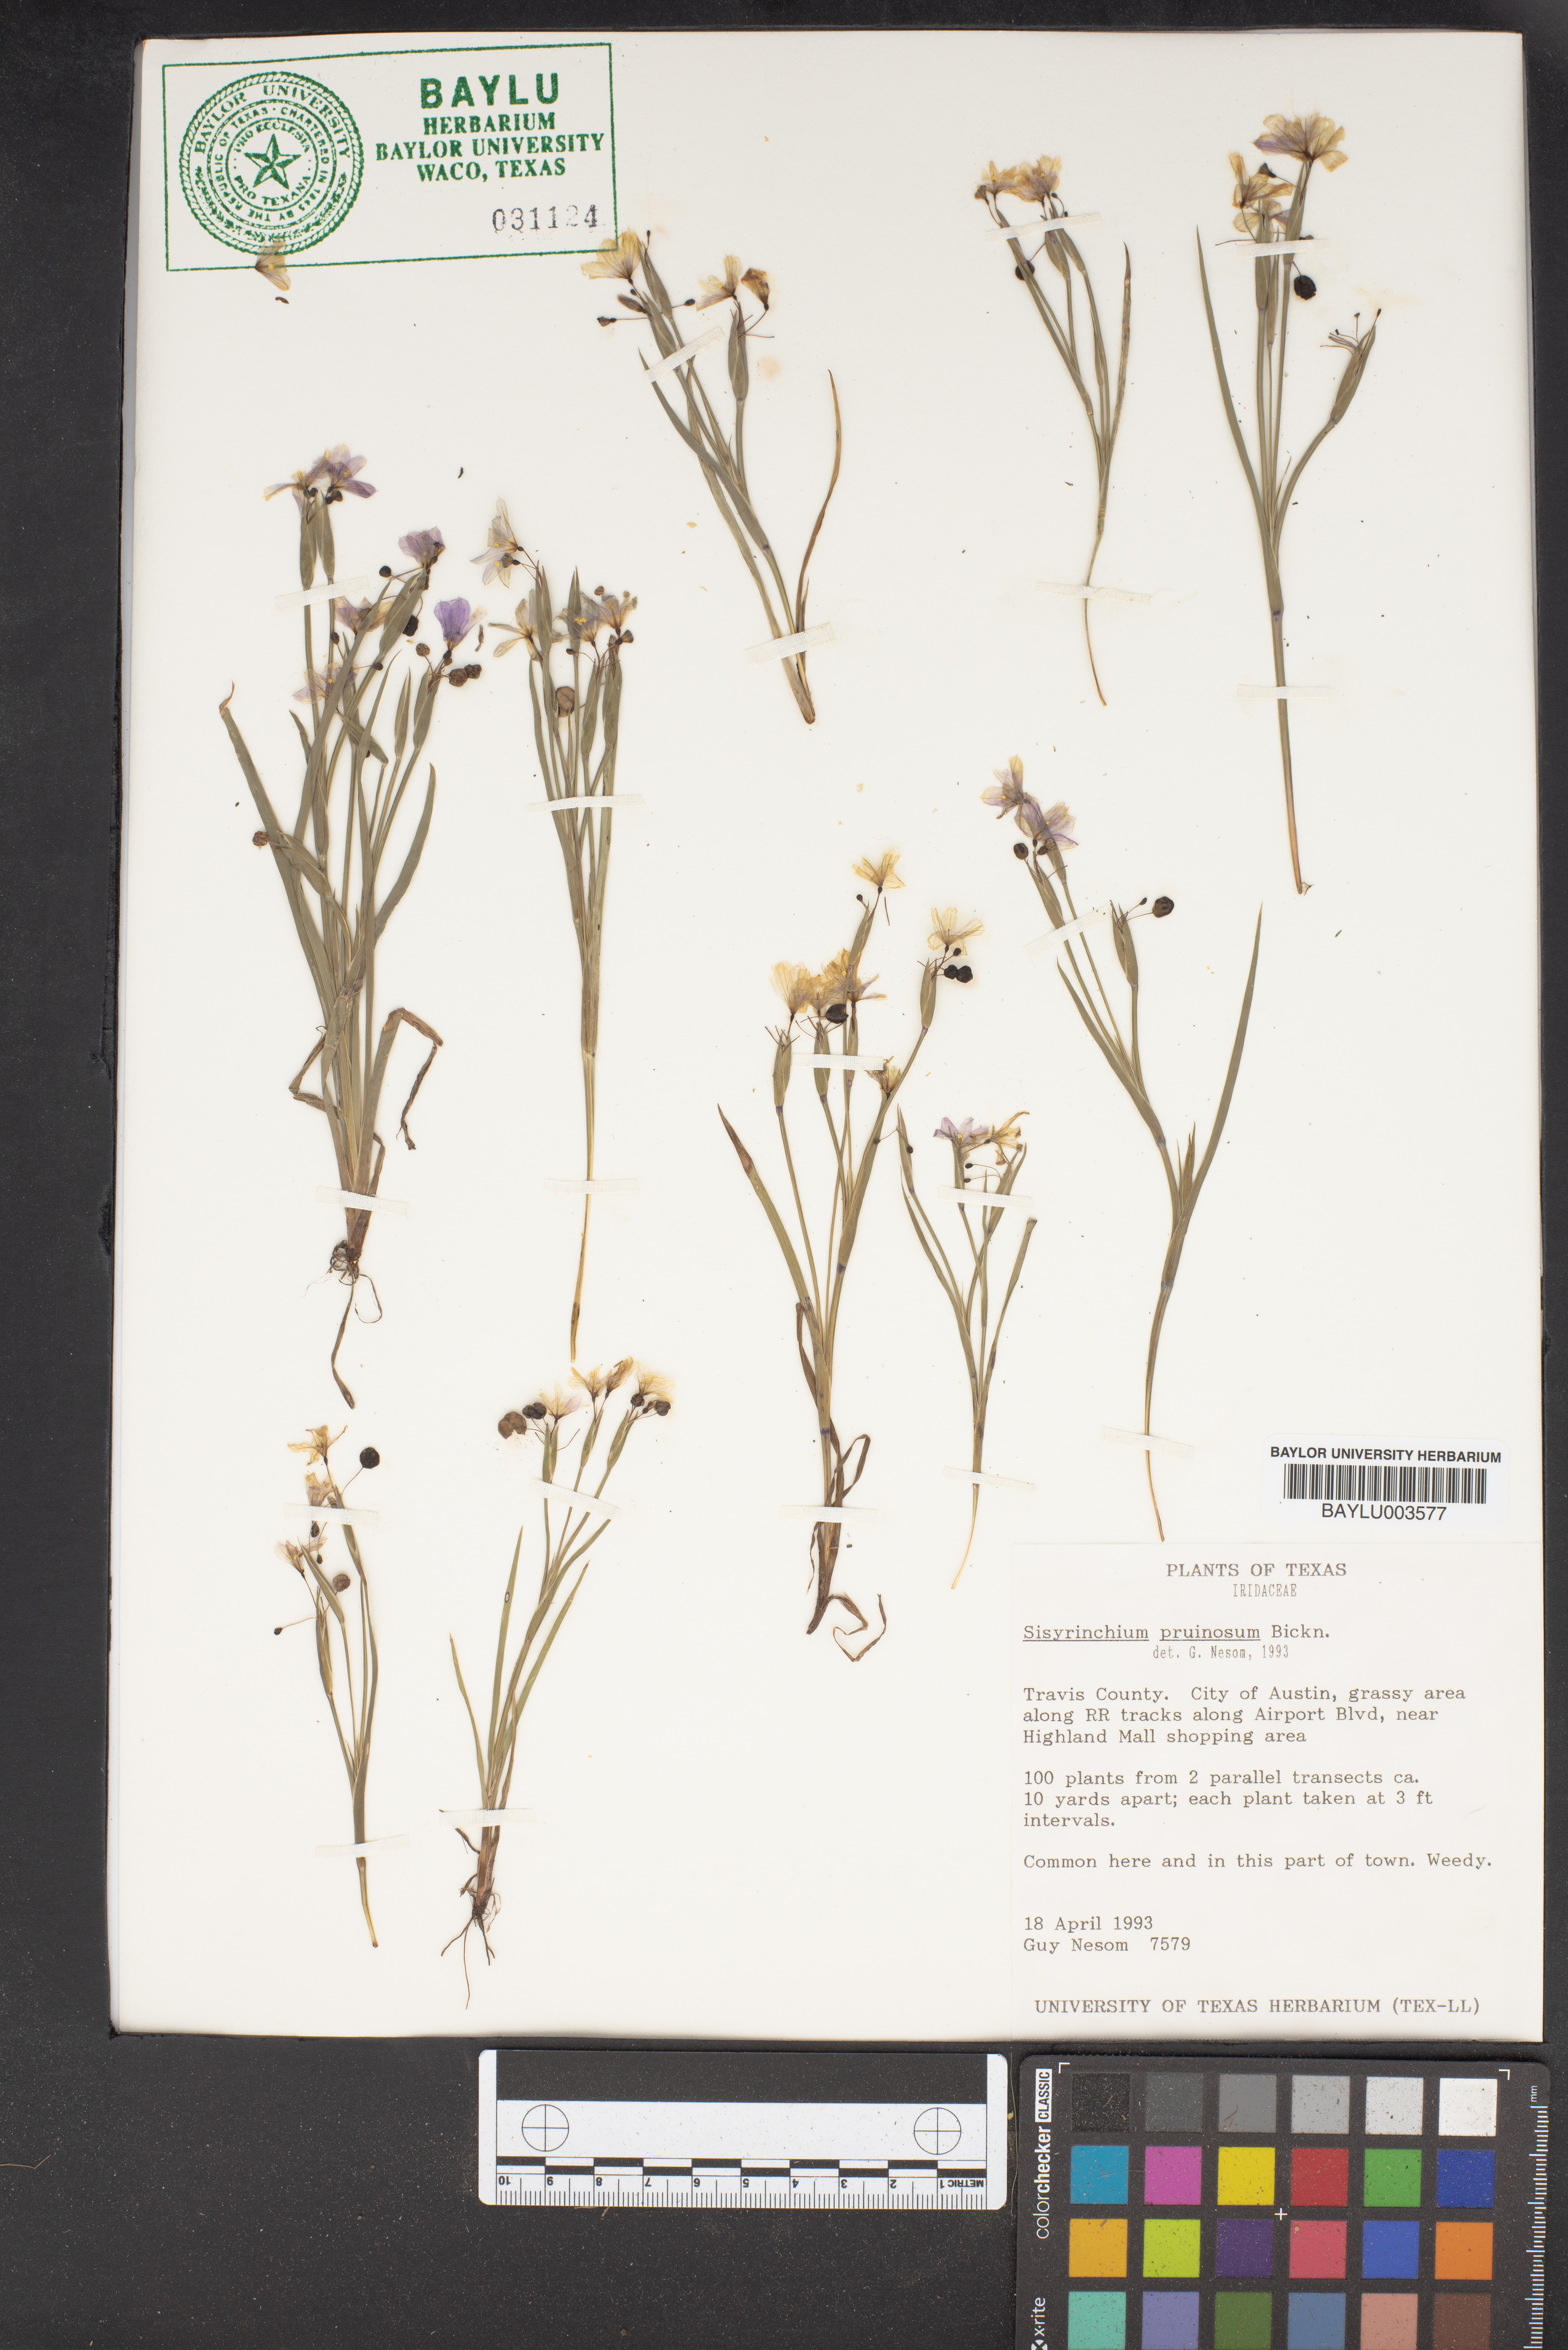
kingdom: Plantae
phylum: Tracheophyta
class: Liliopsida
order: Asparagales
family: Iridaceae
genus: Sisyrinchium
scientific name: Sisyrinchium pruinosum
